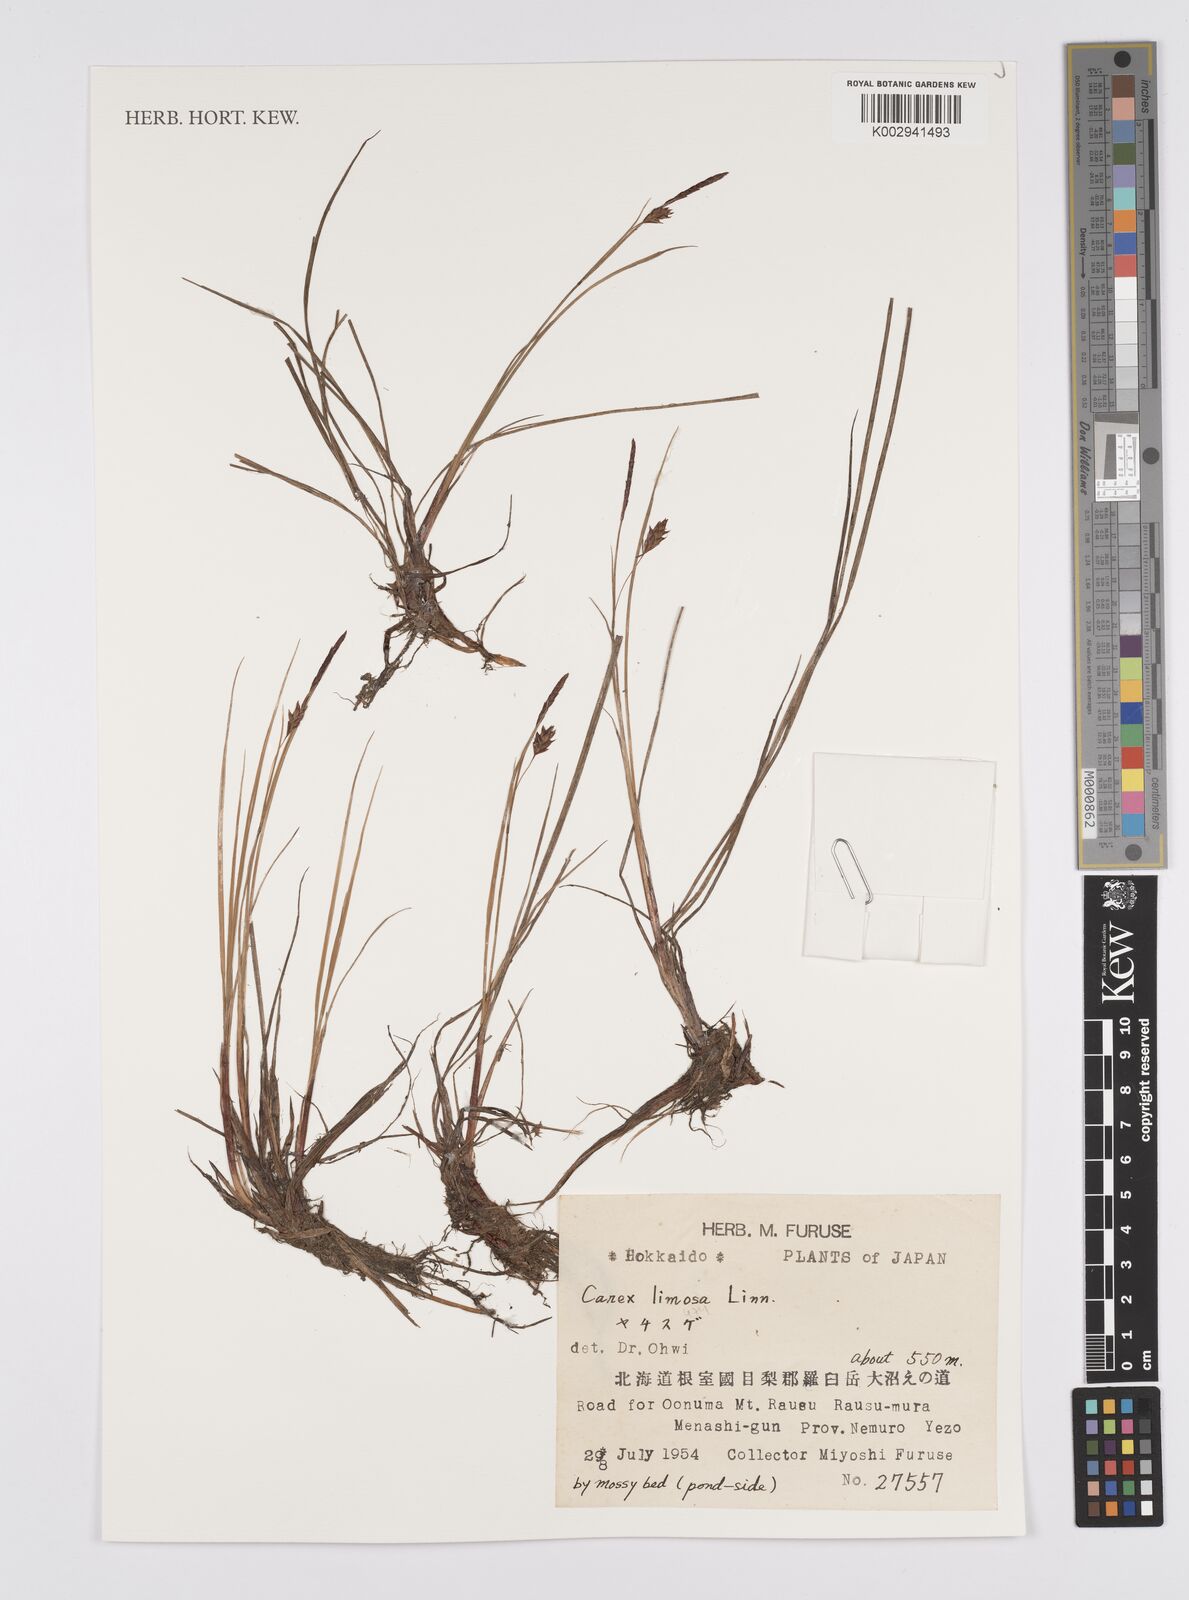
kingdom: Plantae
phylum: Tracheophyta
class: Liliopsida
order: Poales
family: Cyperaceae
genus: Carex
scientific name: Carex limosa
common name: Bog sedge
